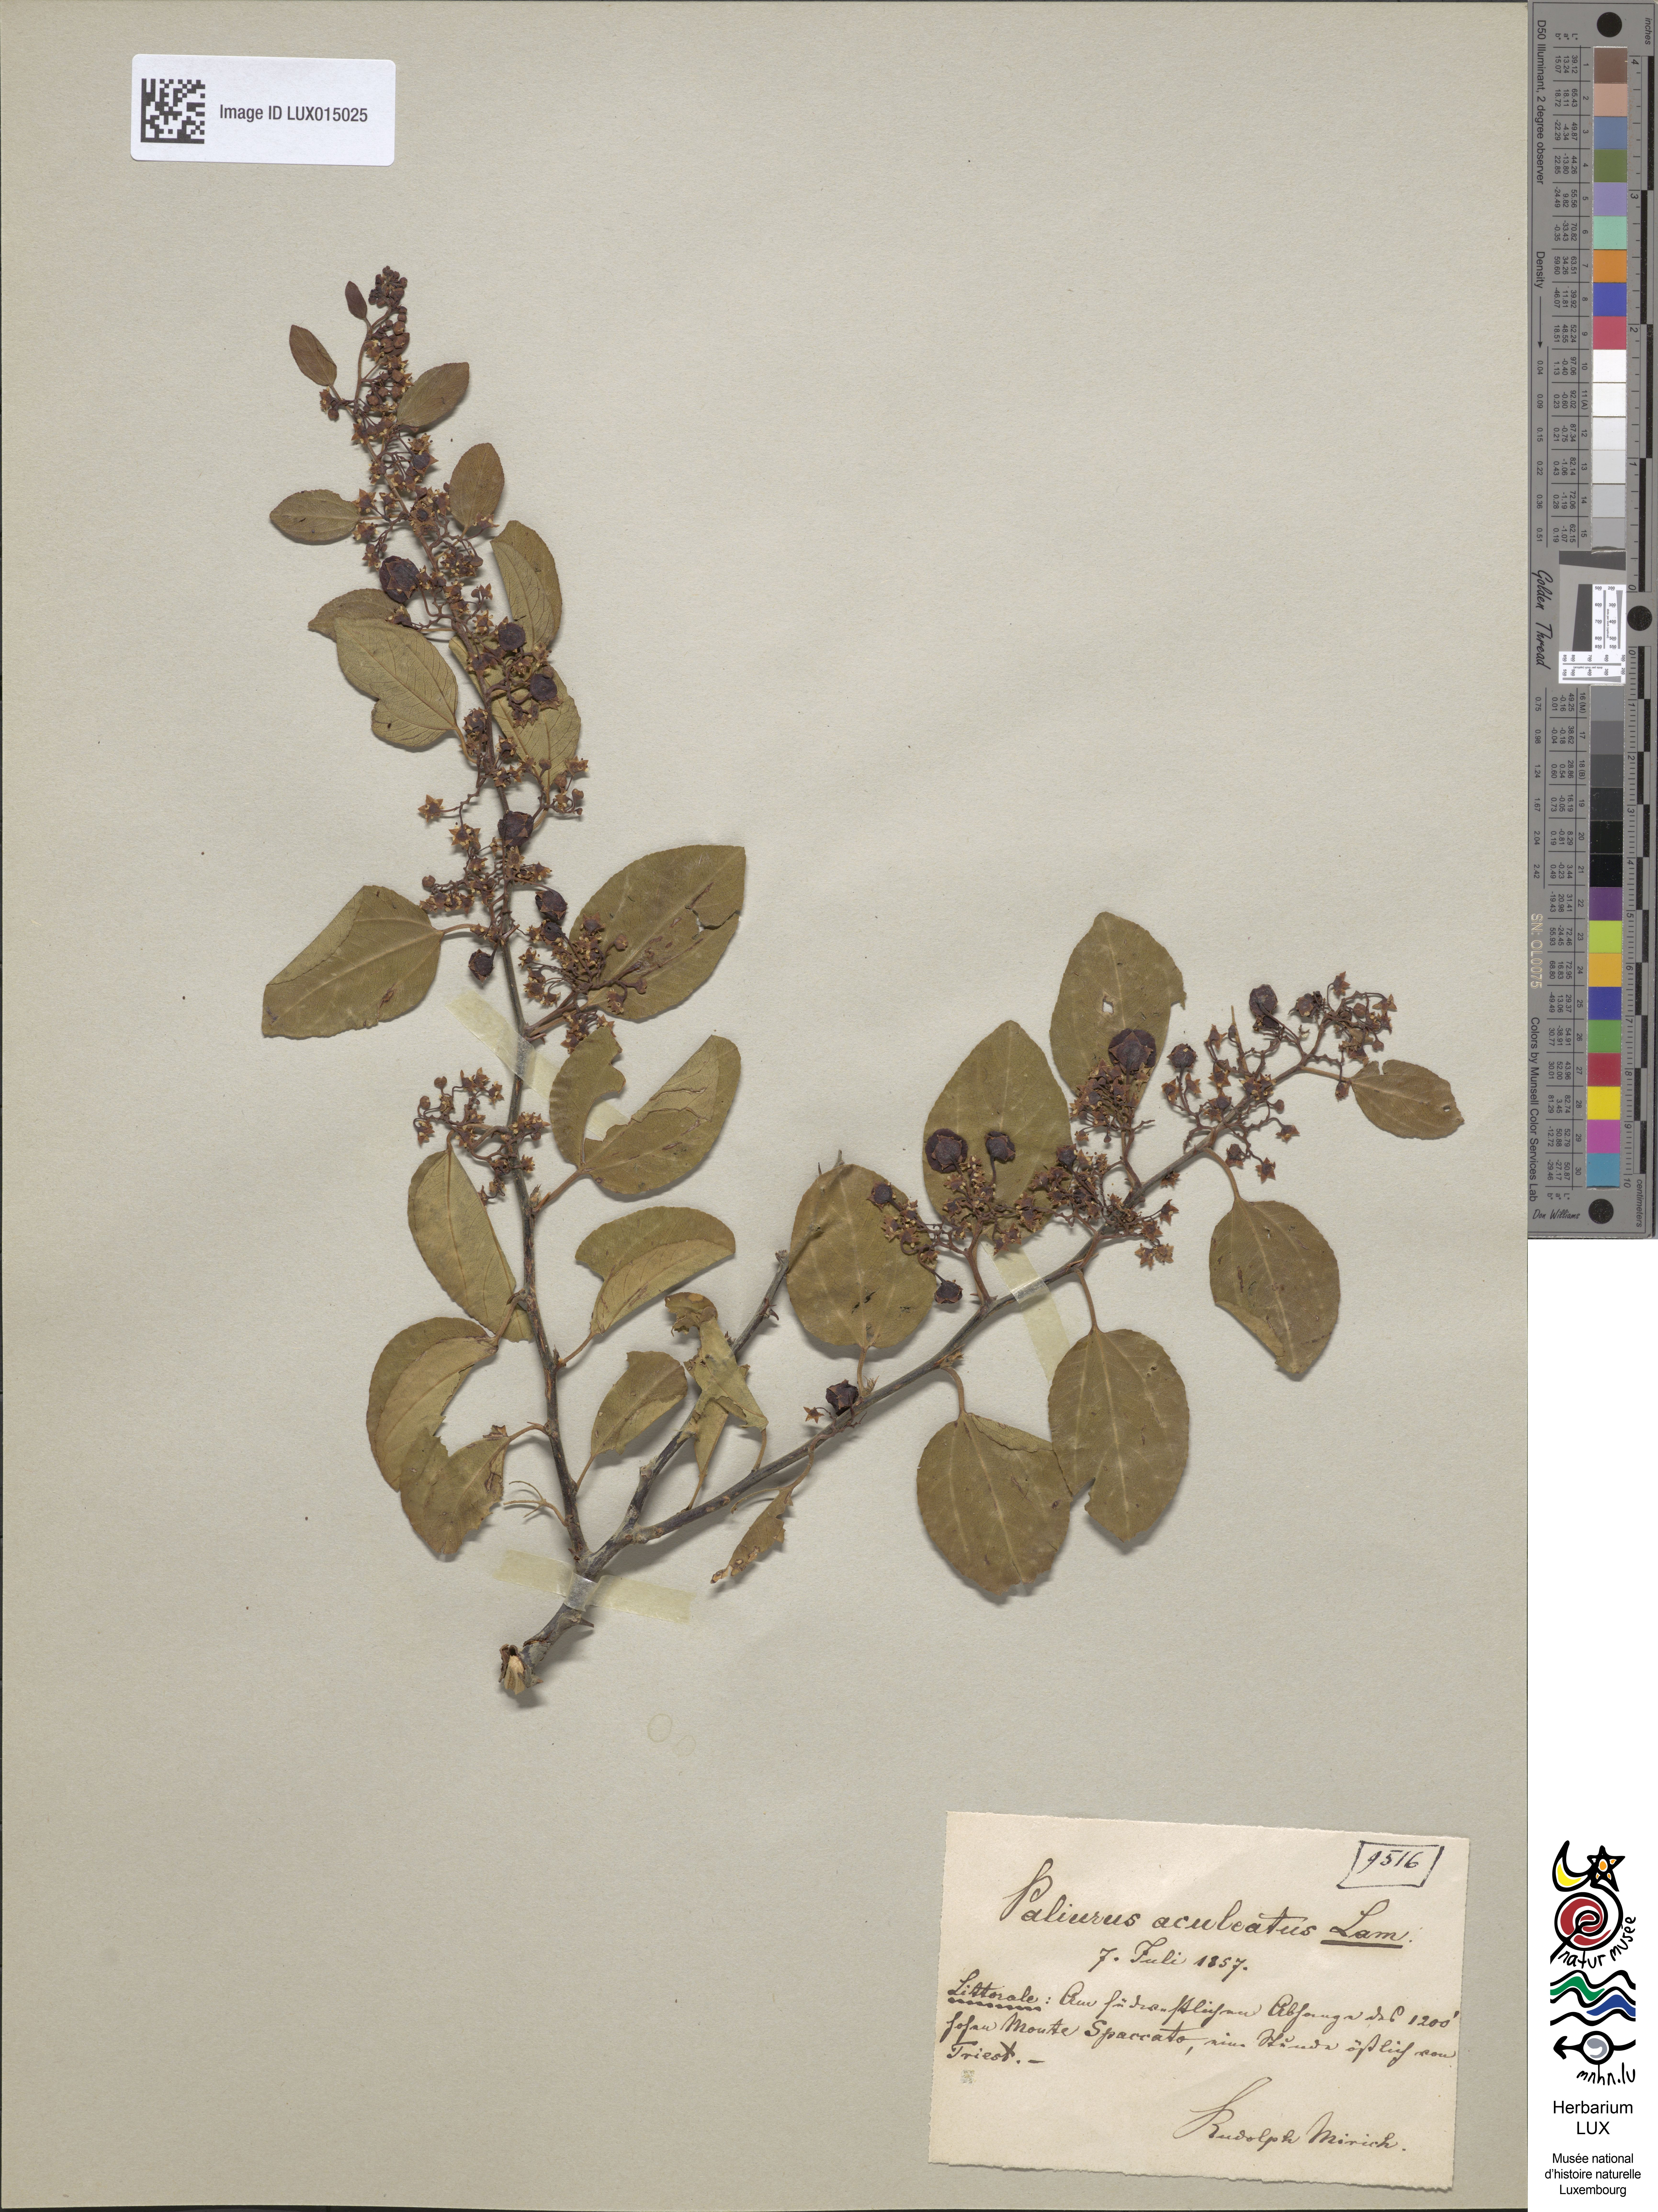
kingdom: Plantae
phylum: Tracheophyta
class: Magnoliopsida
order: Rosales
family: Rhamnaceae
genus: Paliurus
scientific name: Paliurus spina-christi
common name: Jeruselem thorn
